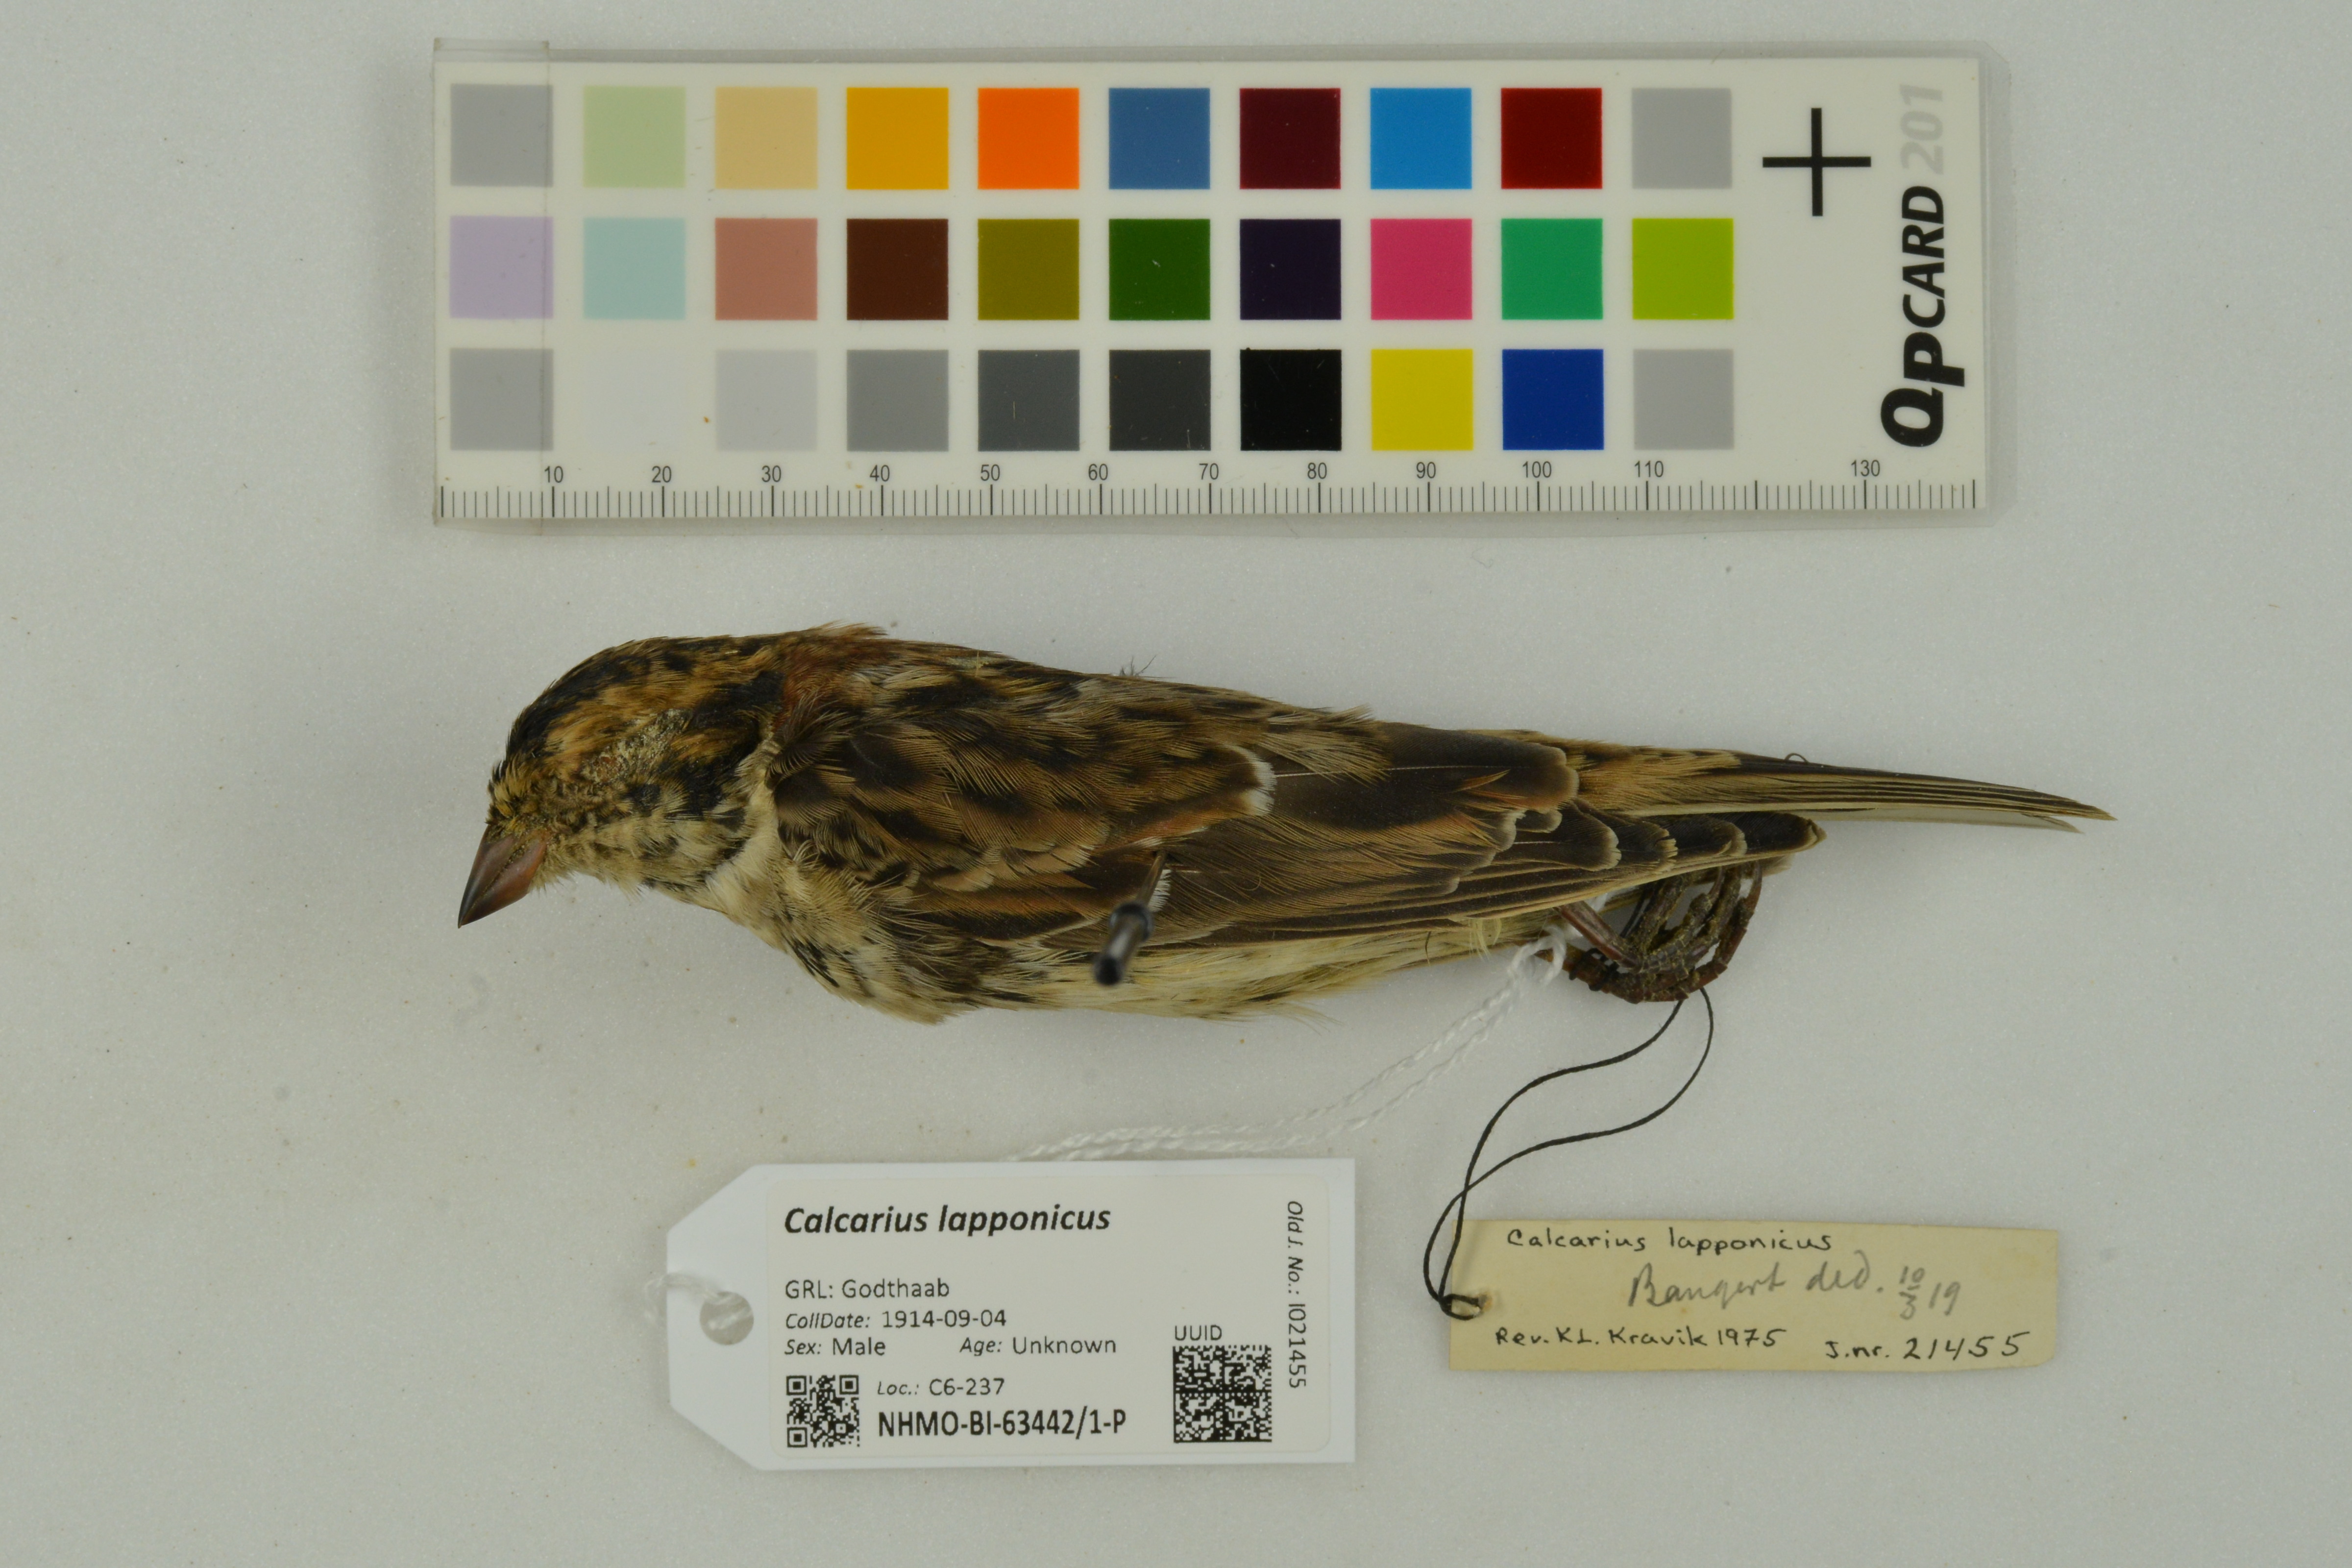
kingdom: Animalia
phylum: Chordata
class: Aves
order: Passeriformes
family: Calcariidae
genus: Calcarius
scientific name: Calcarius lapponicus
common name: Lapland longspur
